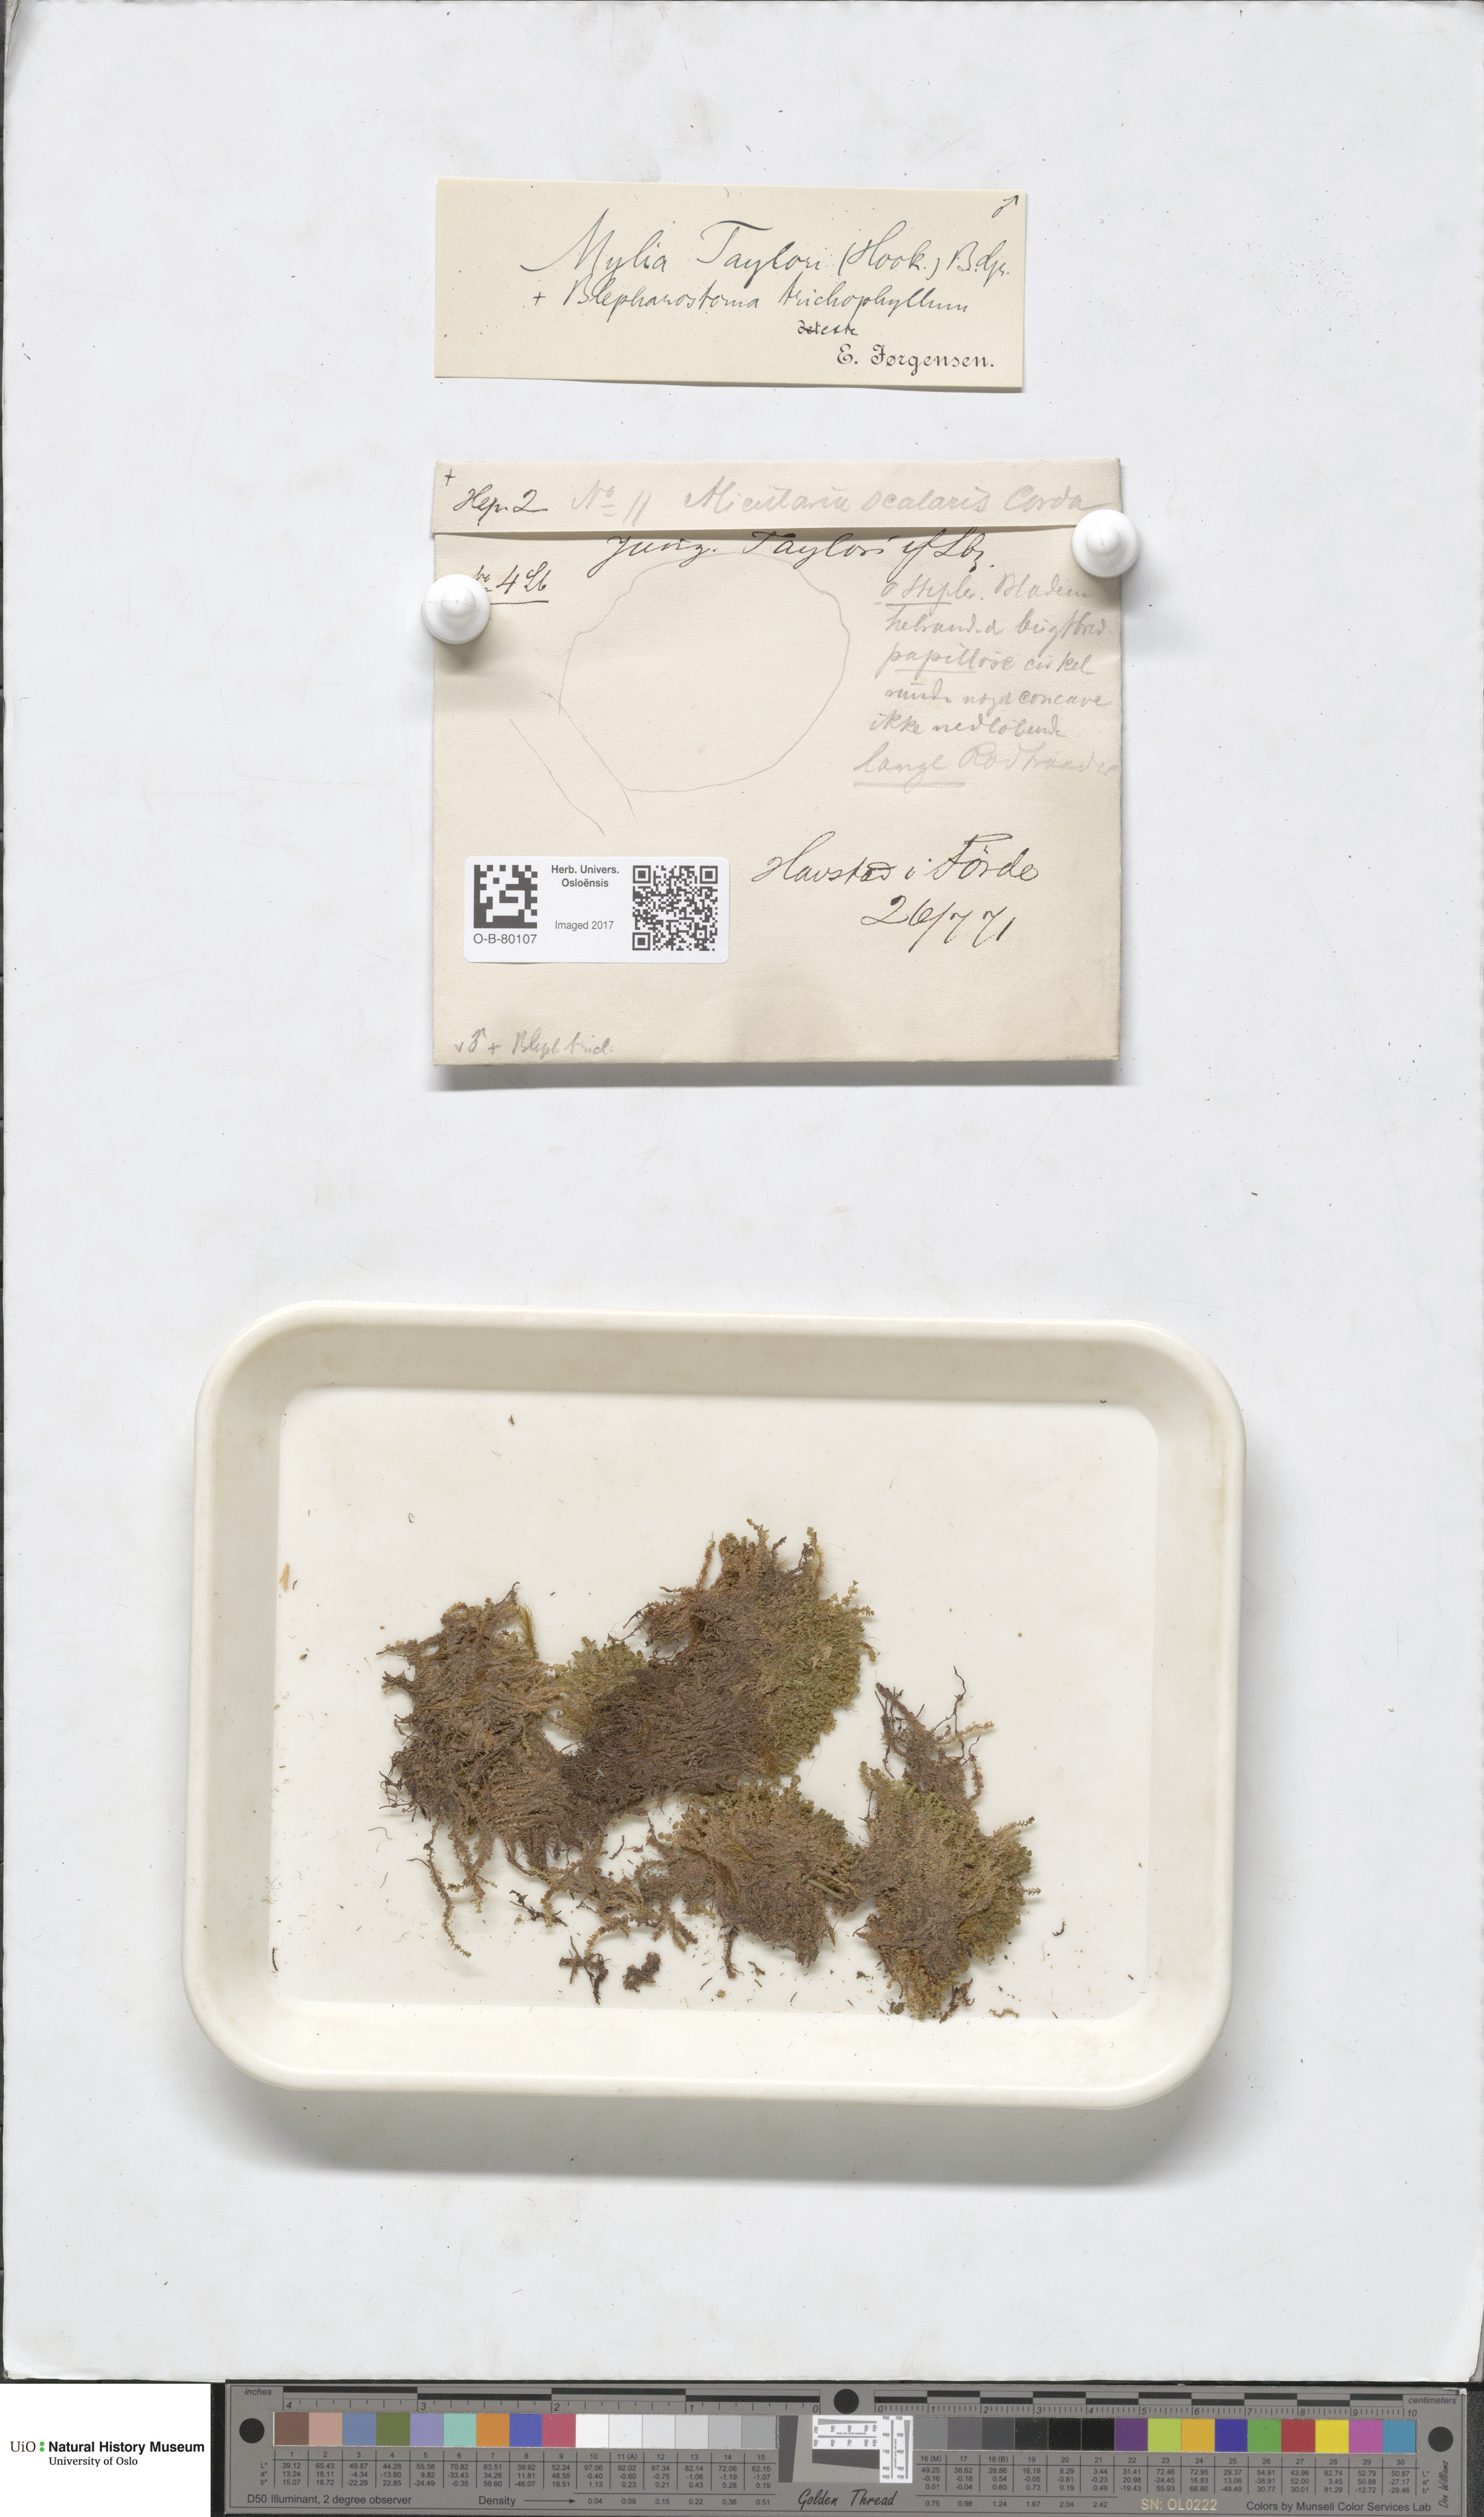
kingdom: Plantae
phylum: Marchantiophyta
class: Jungermanniopsida
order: Jungermanniales
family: Myliaceae
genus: Mylia
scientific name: Mylia taylorii
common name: Taylor s flapwort
